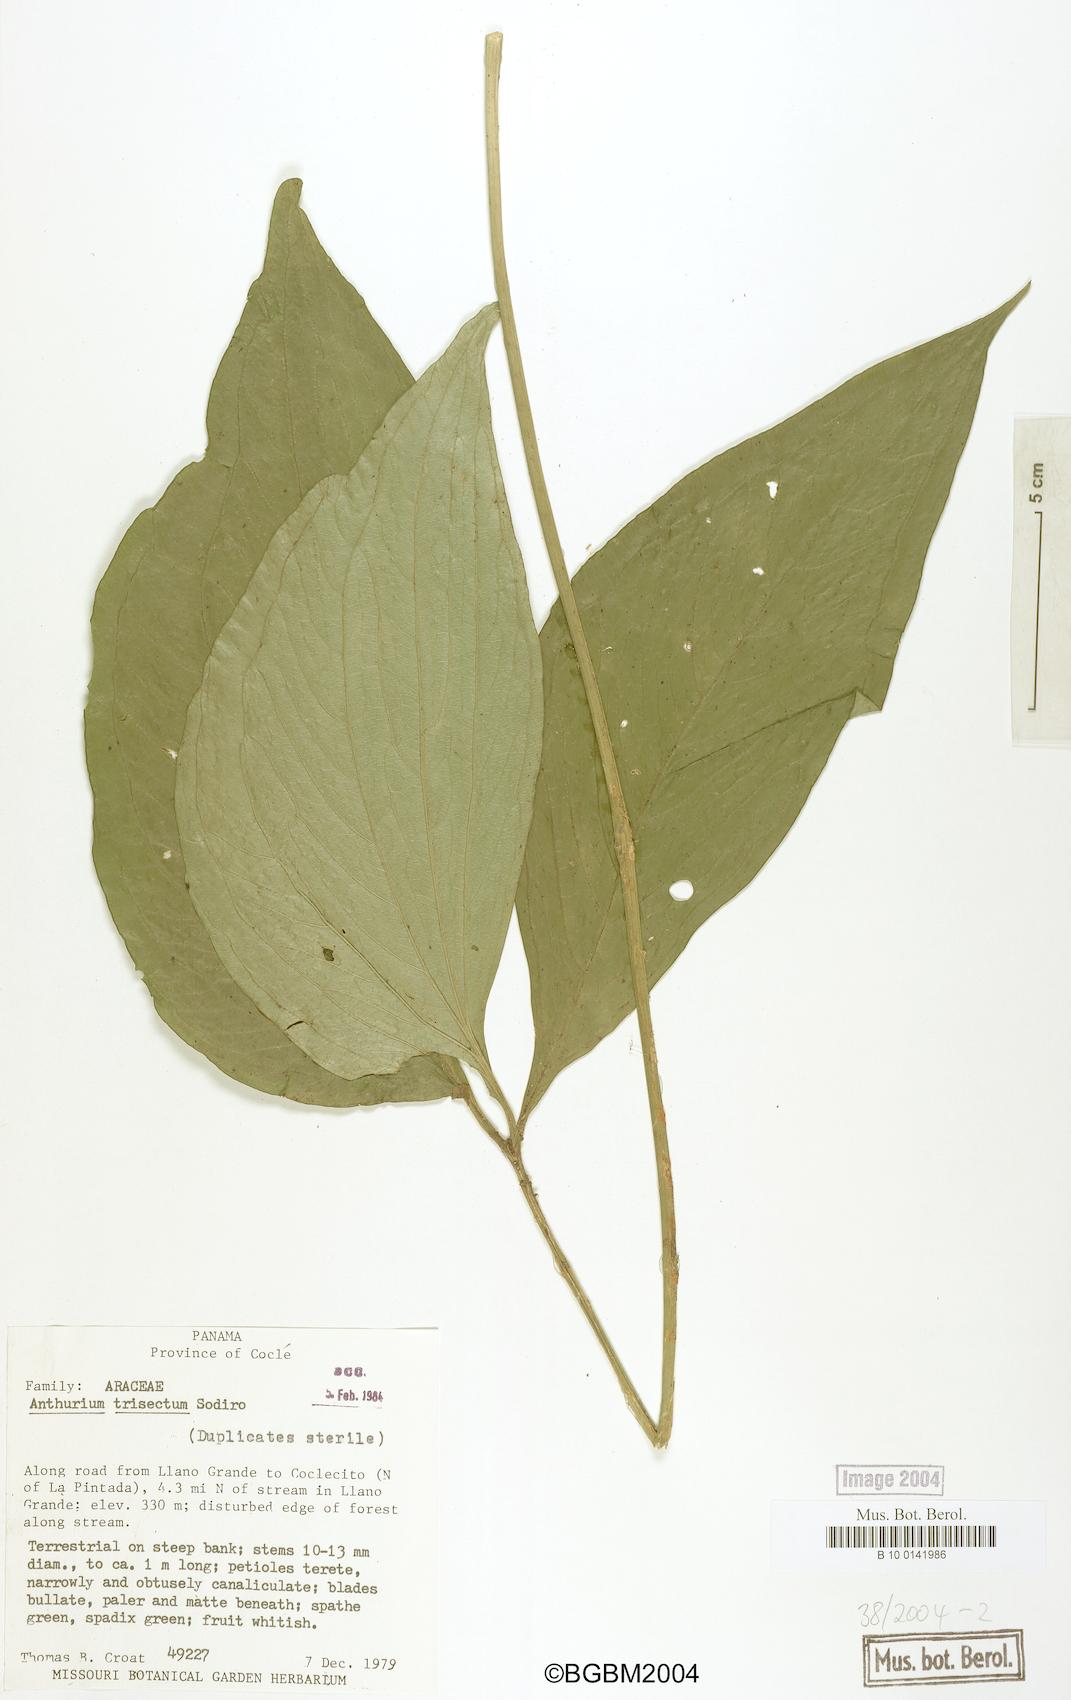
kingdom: Plantae
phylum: Tracheophyta
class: Liliopsida
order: Alismatales
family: Araceae
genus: Anthurium
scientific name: Anthurium trisectum
